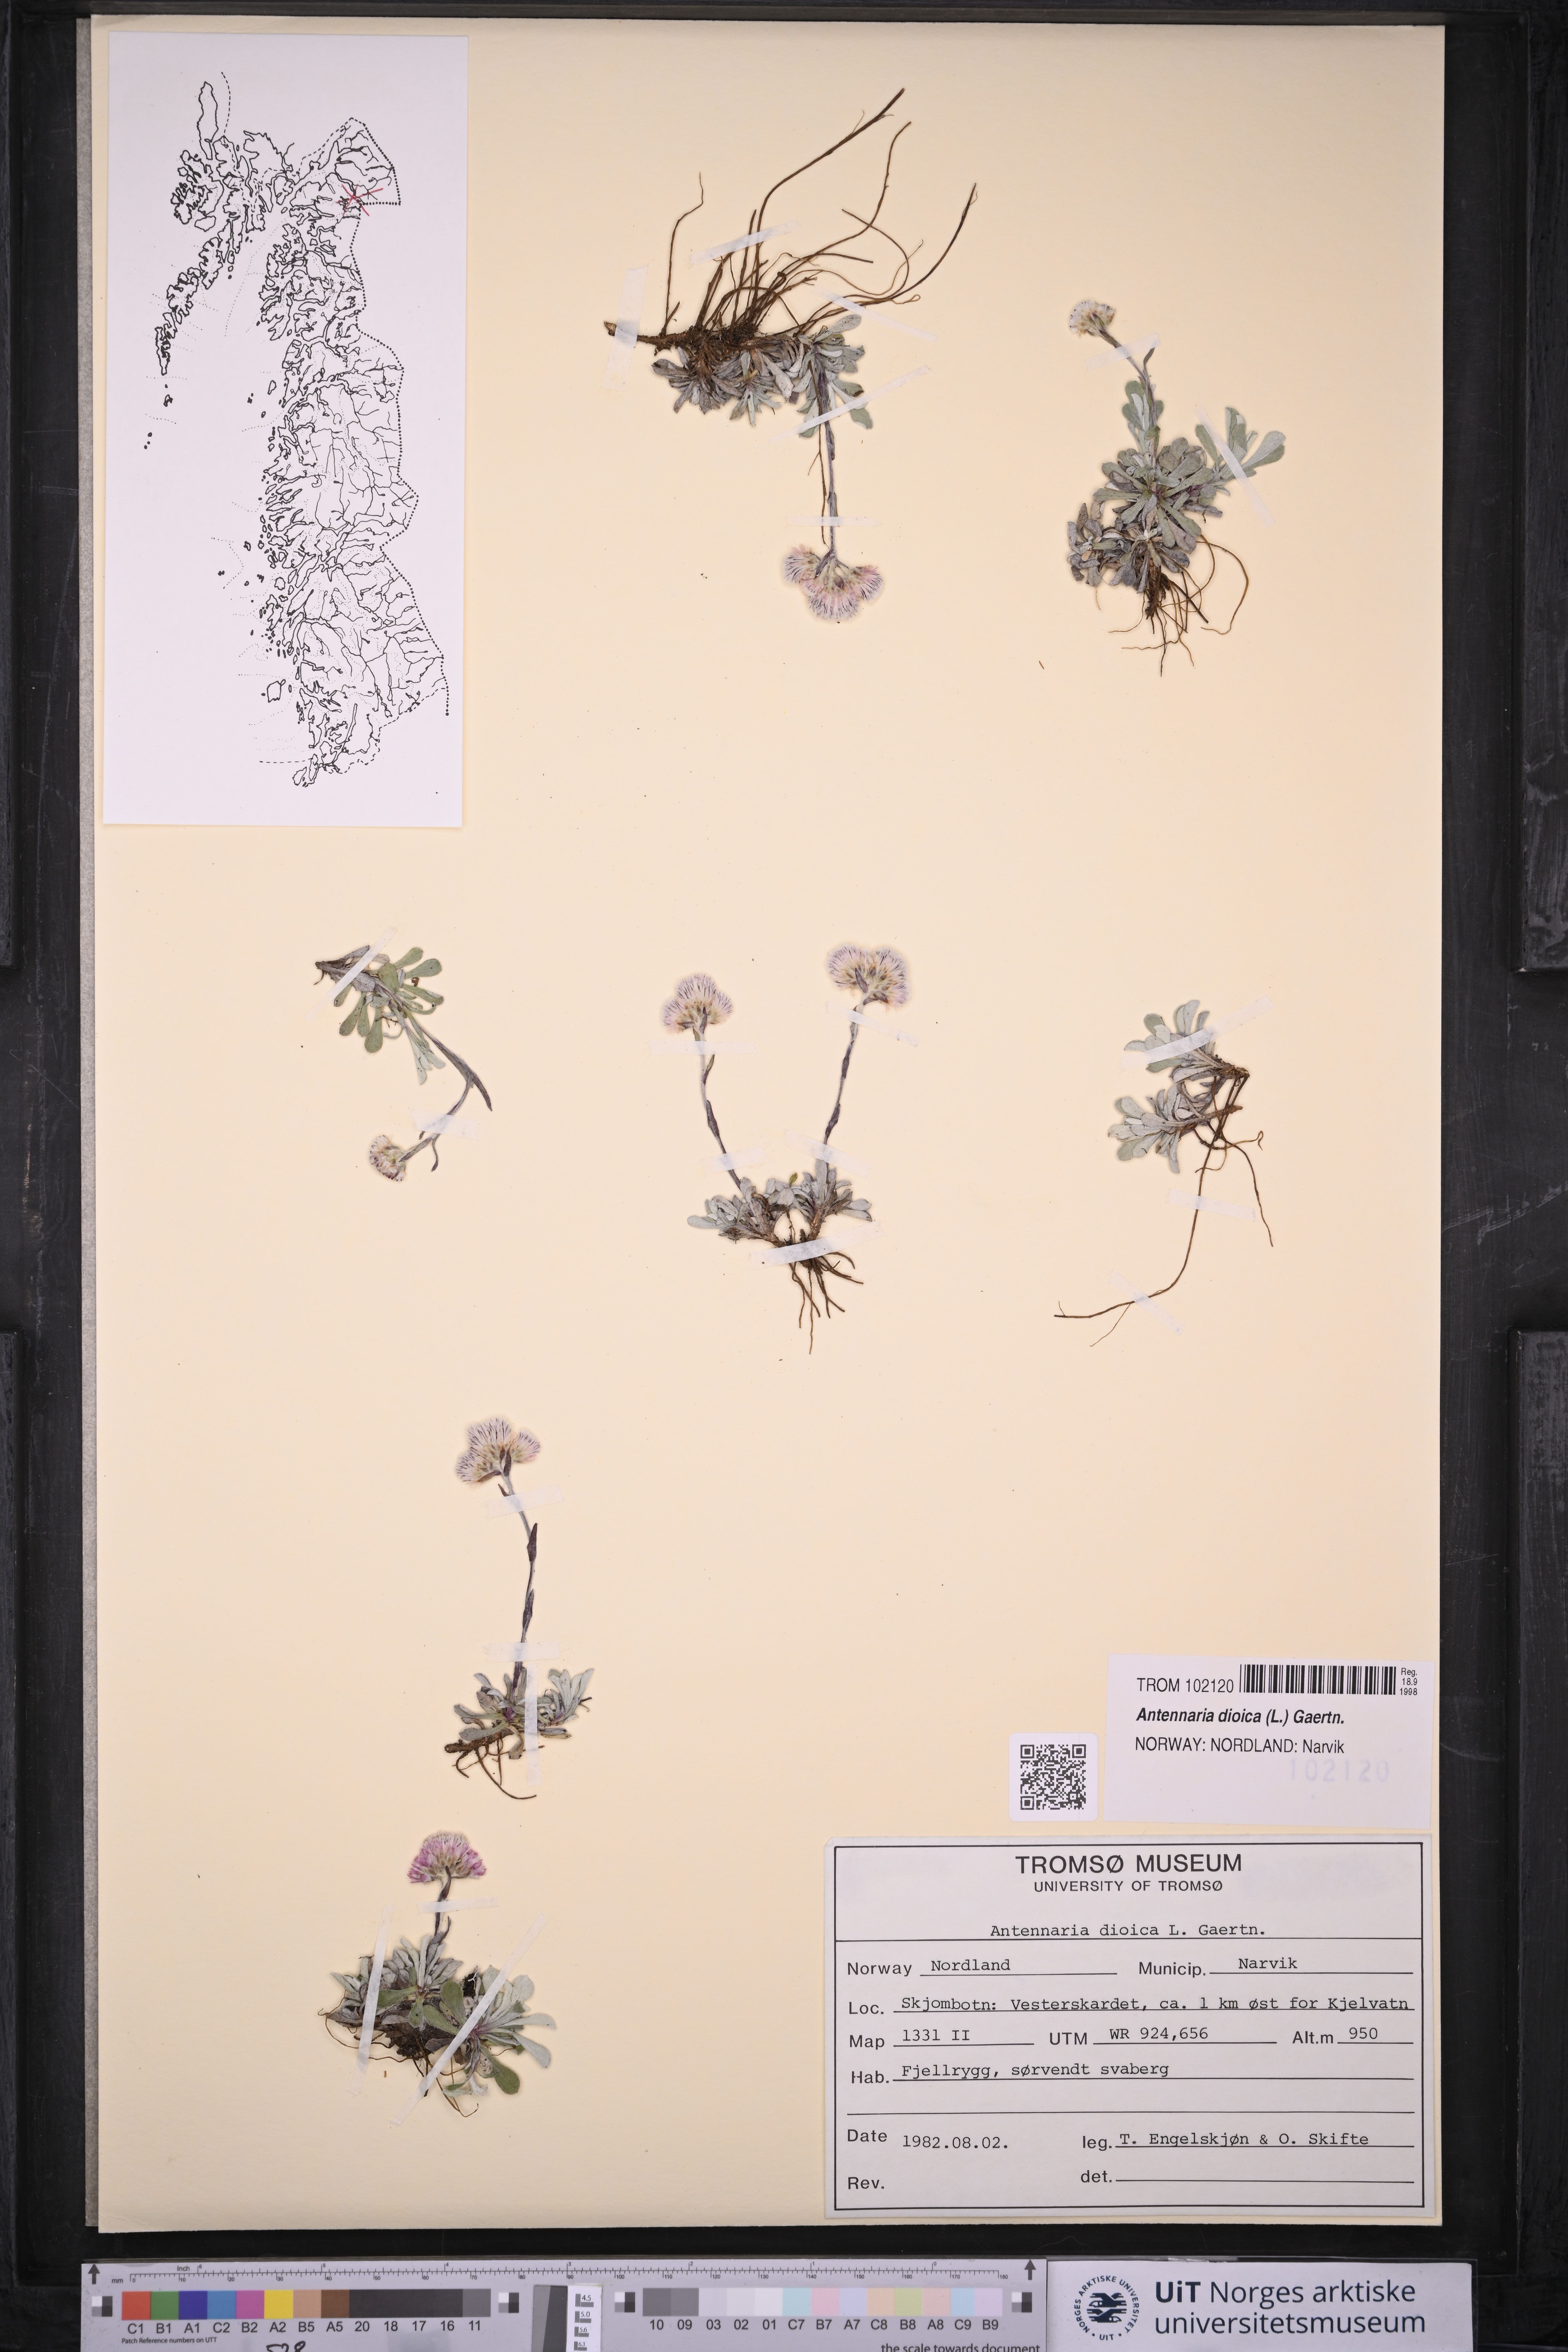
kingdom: Plantae
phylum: Tracheophyta
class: Magnoliopsida
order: Asterales
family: Asteraceae
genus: Antennaria
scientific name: Antennaria dioica
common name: Mountain everlasting
